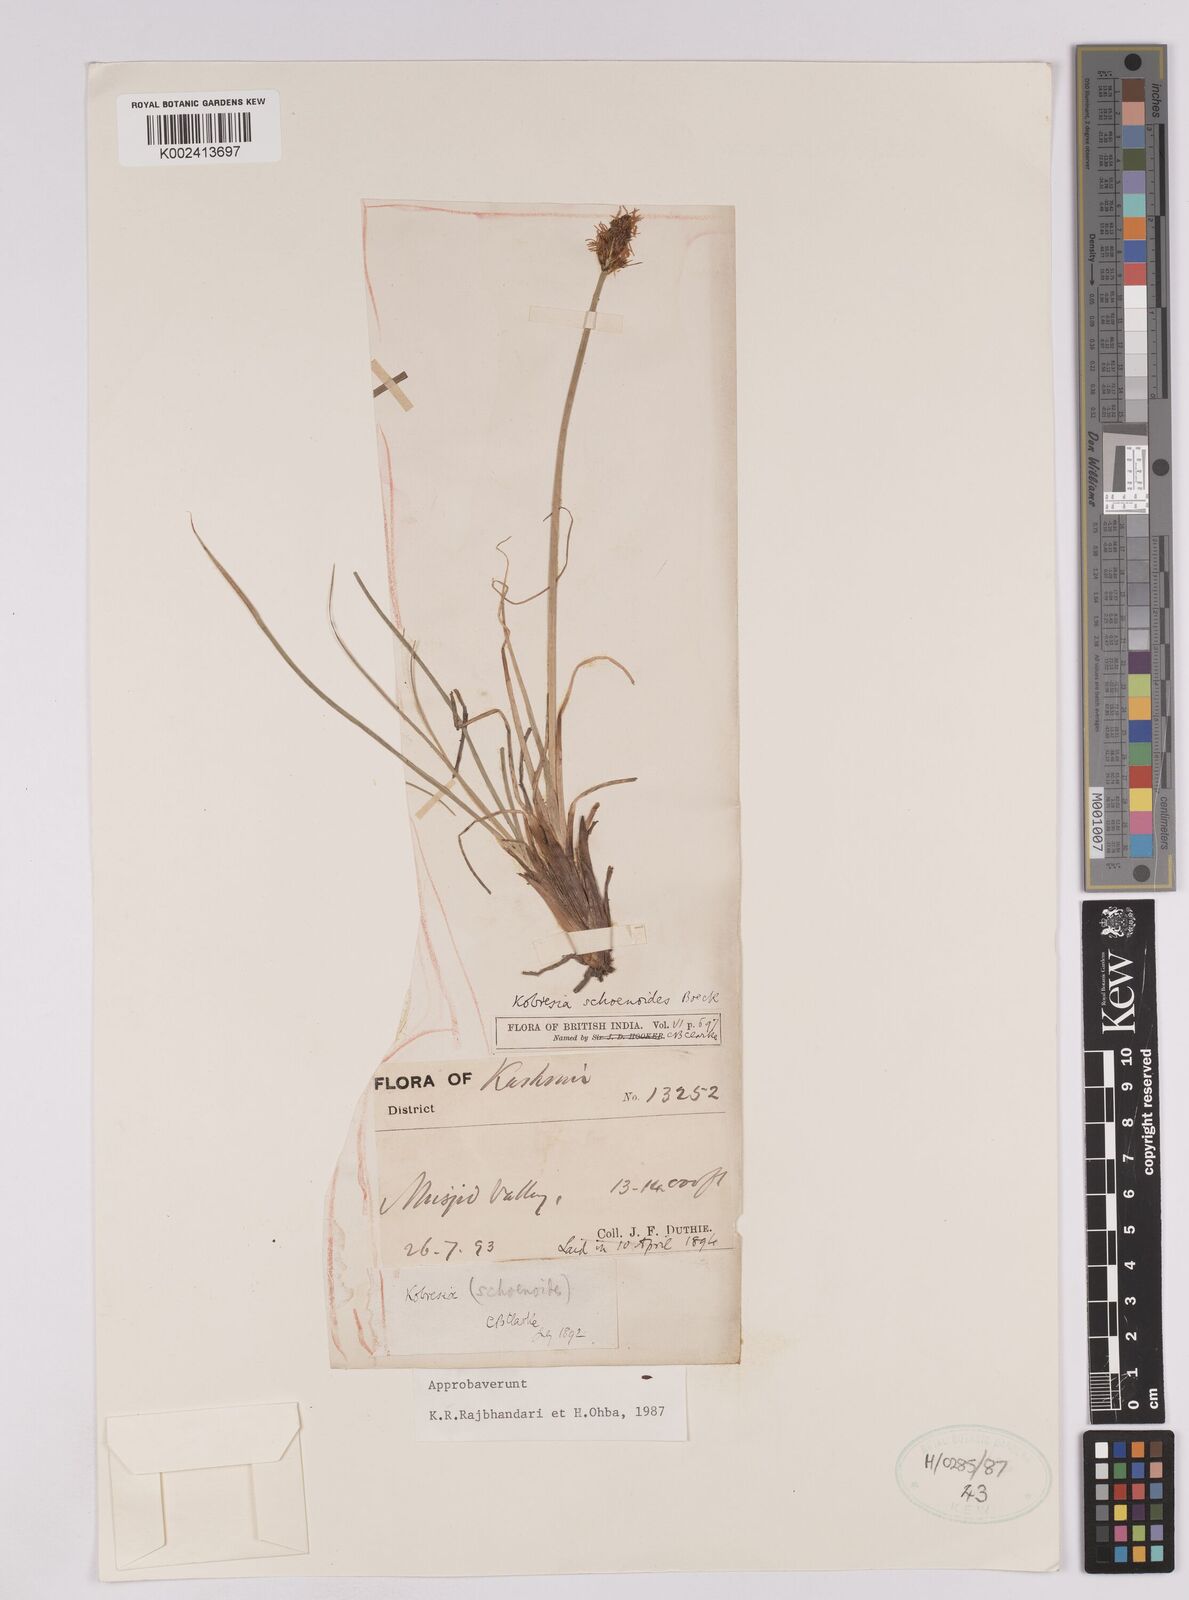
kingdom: Plantae
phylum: Tracheophyta
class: Liliopsida
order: Poales
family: Cyperaceae
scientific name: Cyperaceae
